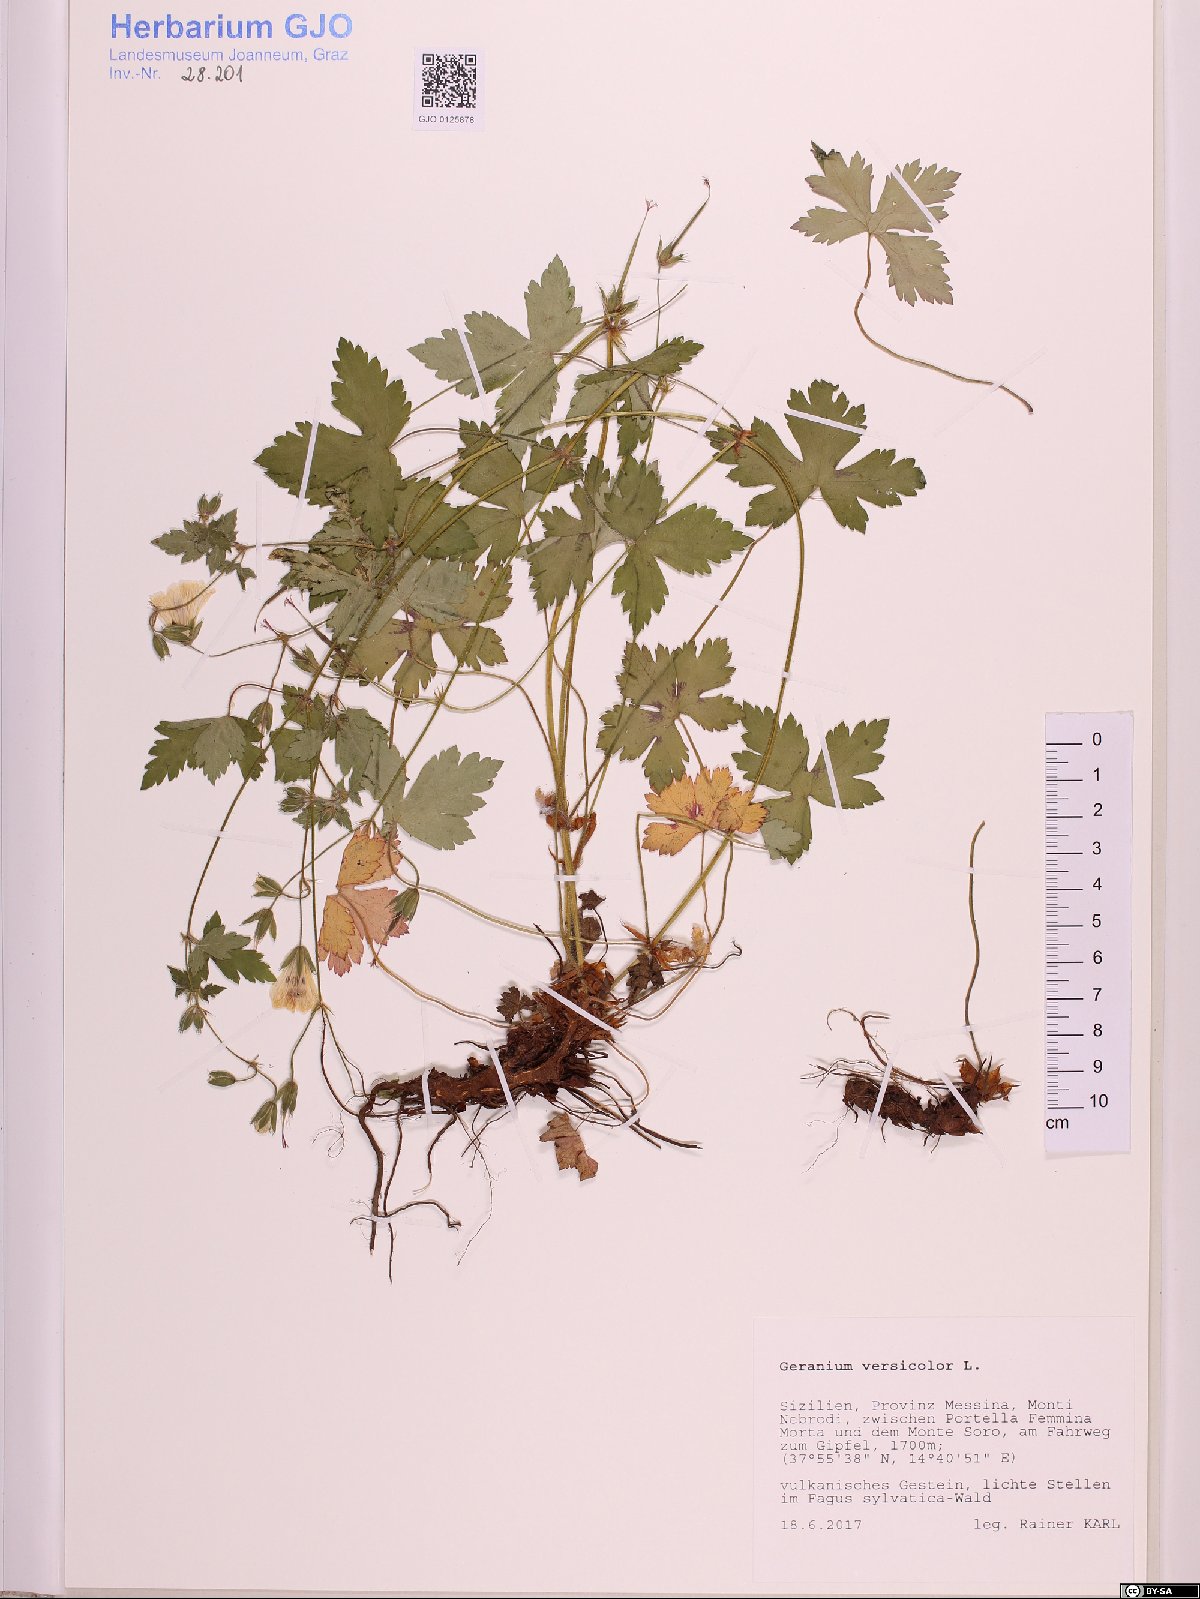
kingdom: Plantae
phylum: Tracheophyta
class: Magnoliopsida
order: Geraniales
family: Geraniaceae
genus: Geranium
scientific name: Geranium versicolor
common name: Pencilled crane's-bill
